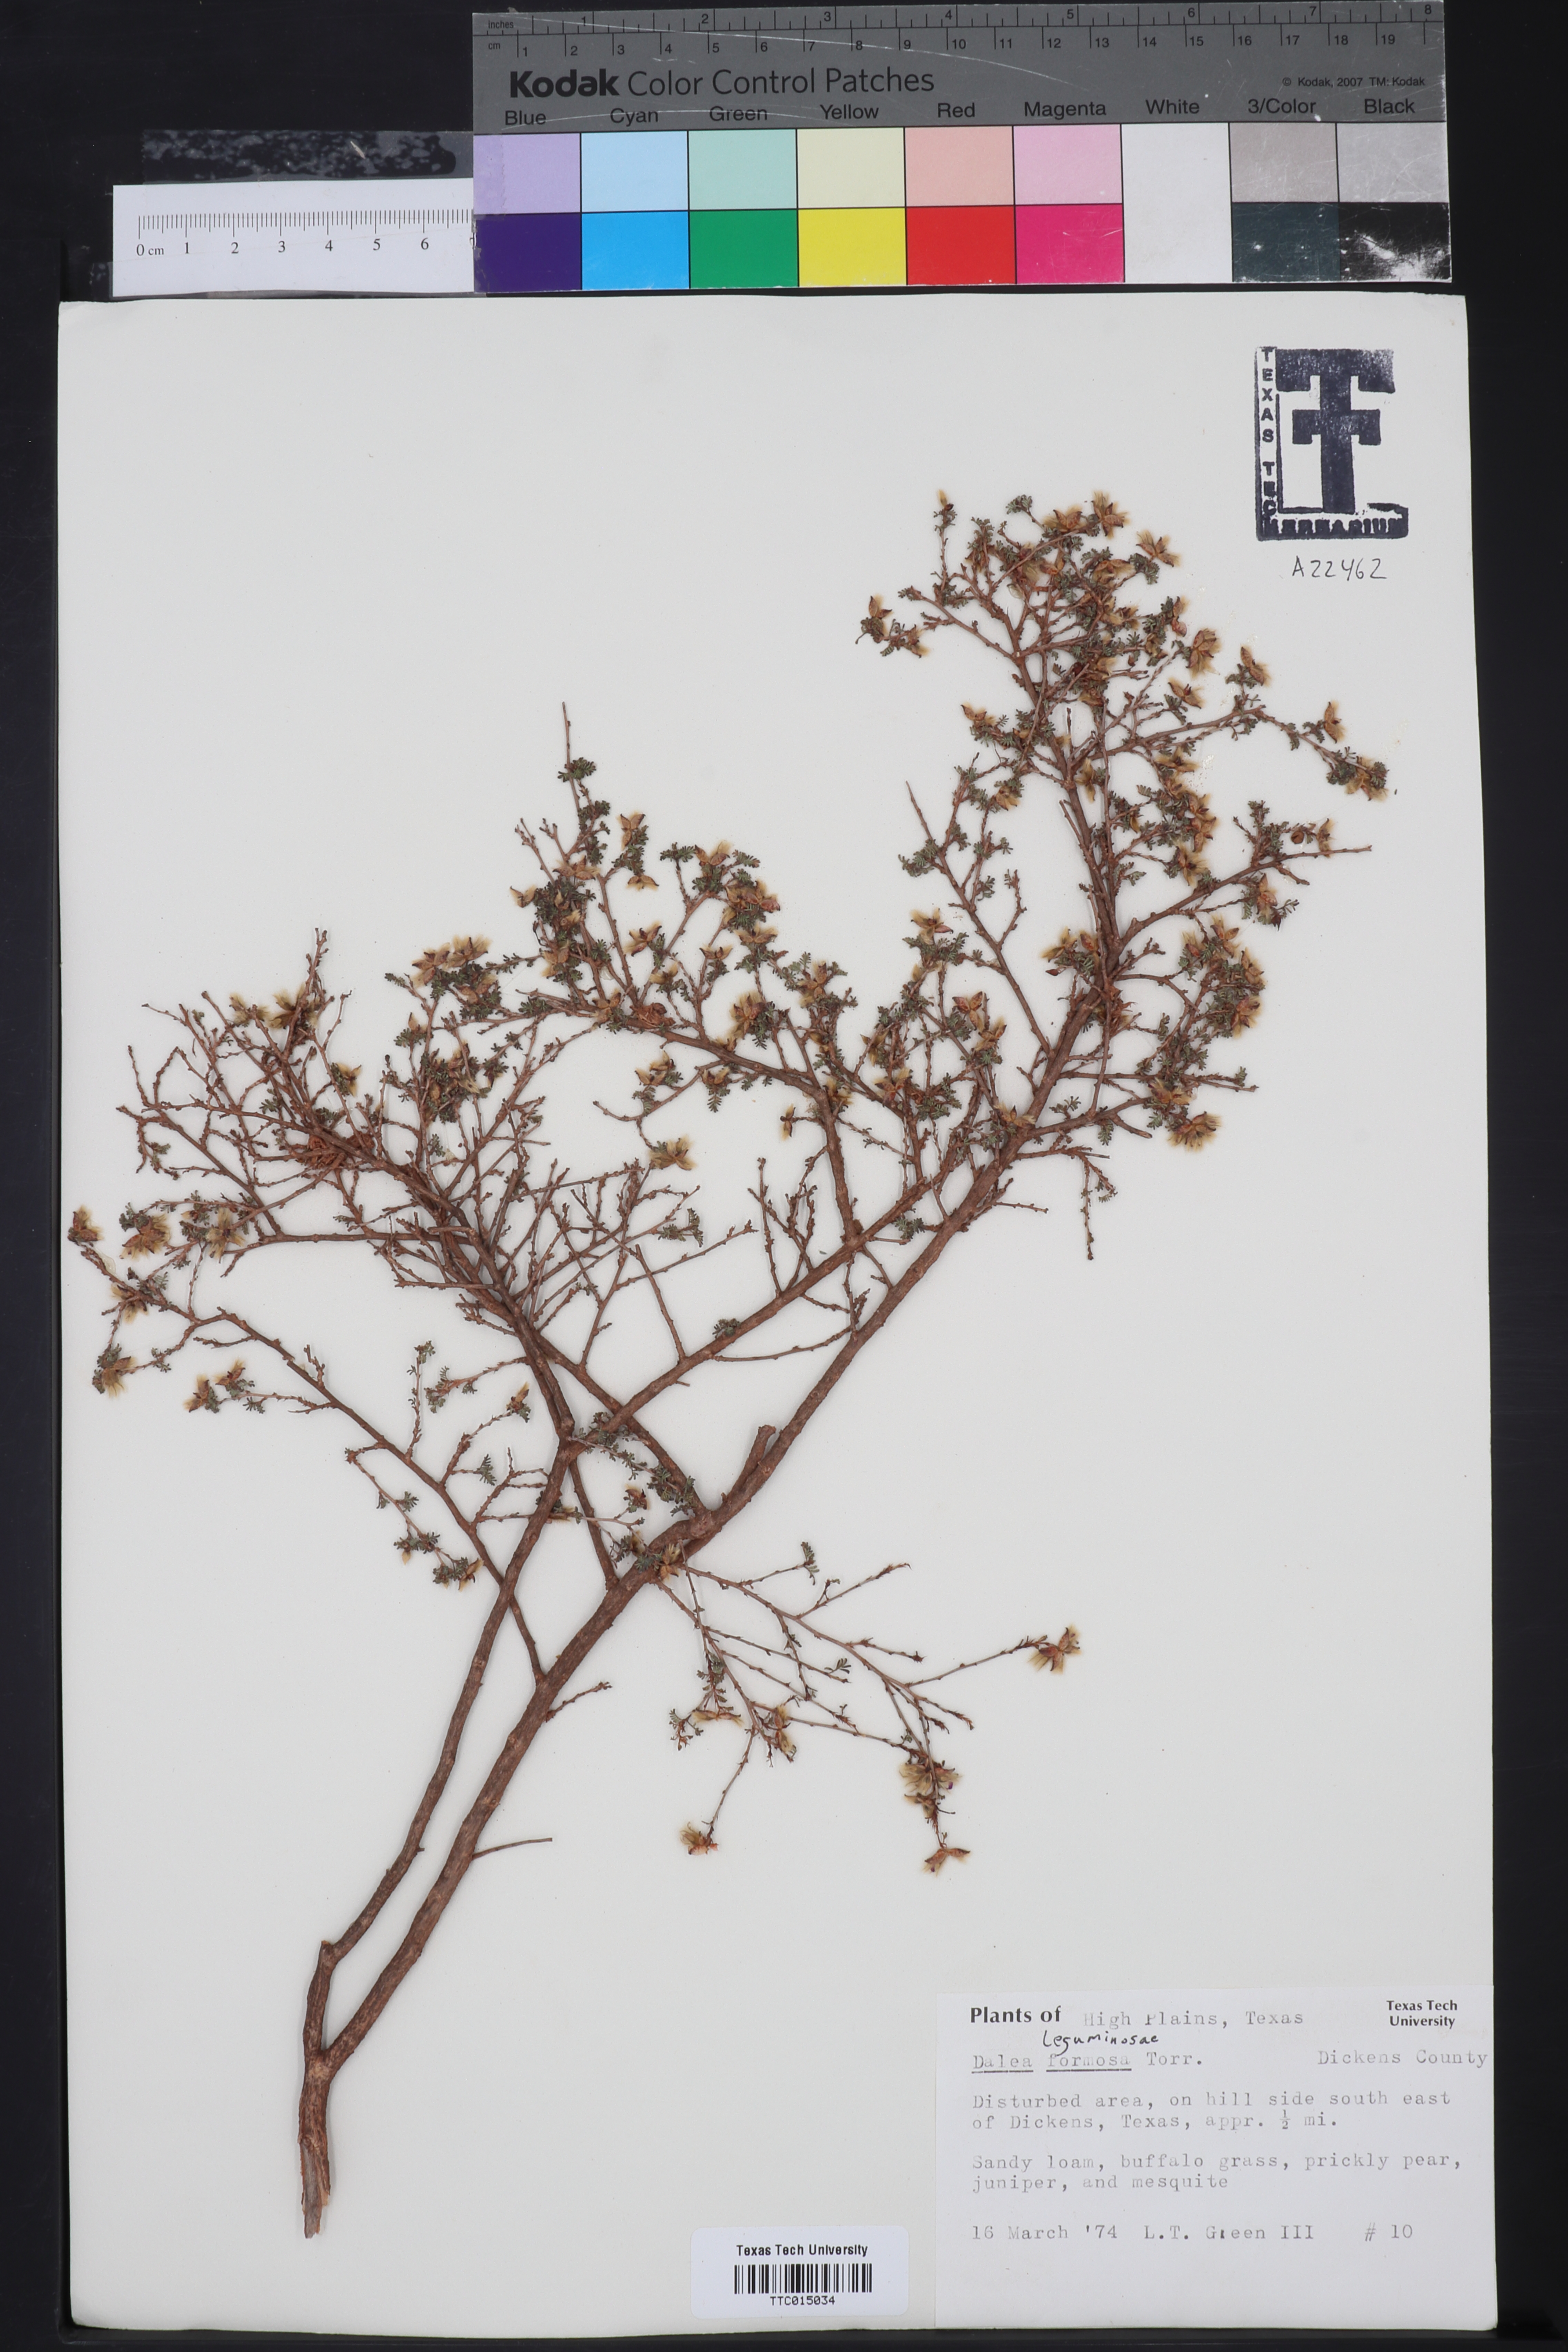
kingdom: Plantae
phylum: Tracheophyta
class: Magnoliopsida
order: Fabales
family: Fabaceae
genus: Dalea
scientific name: Dalea formosa
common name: Feather-plume dalea
